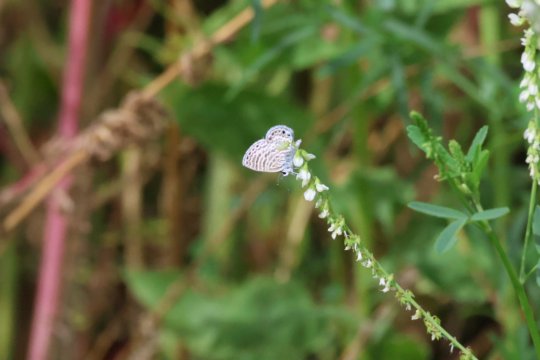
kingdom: Animalia
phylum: Arthropoda
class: Insecta
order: Lepidoptera
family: Lycaenidae
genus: Leptotes
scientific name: Leptotes marina
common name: Marine Blue
